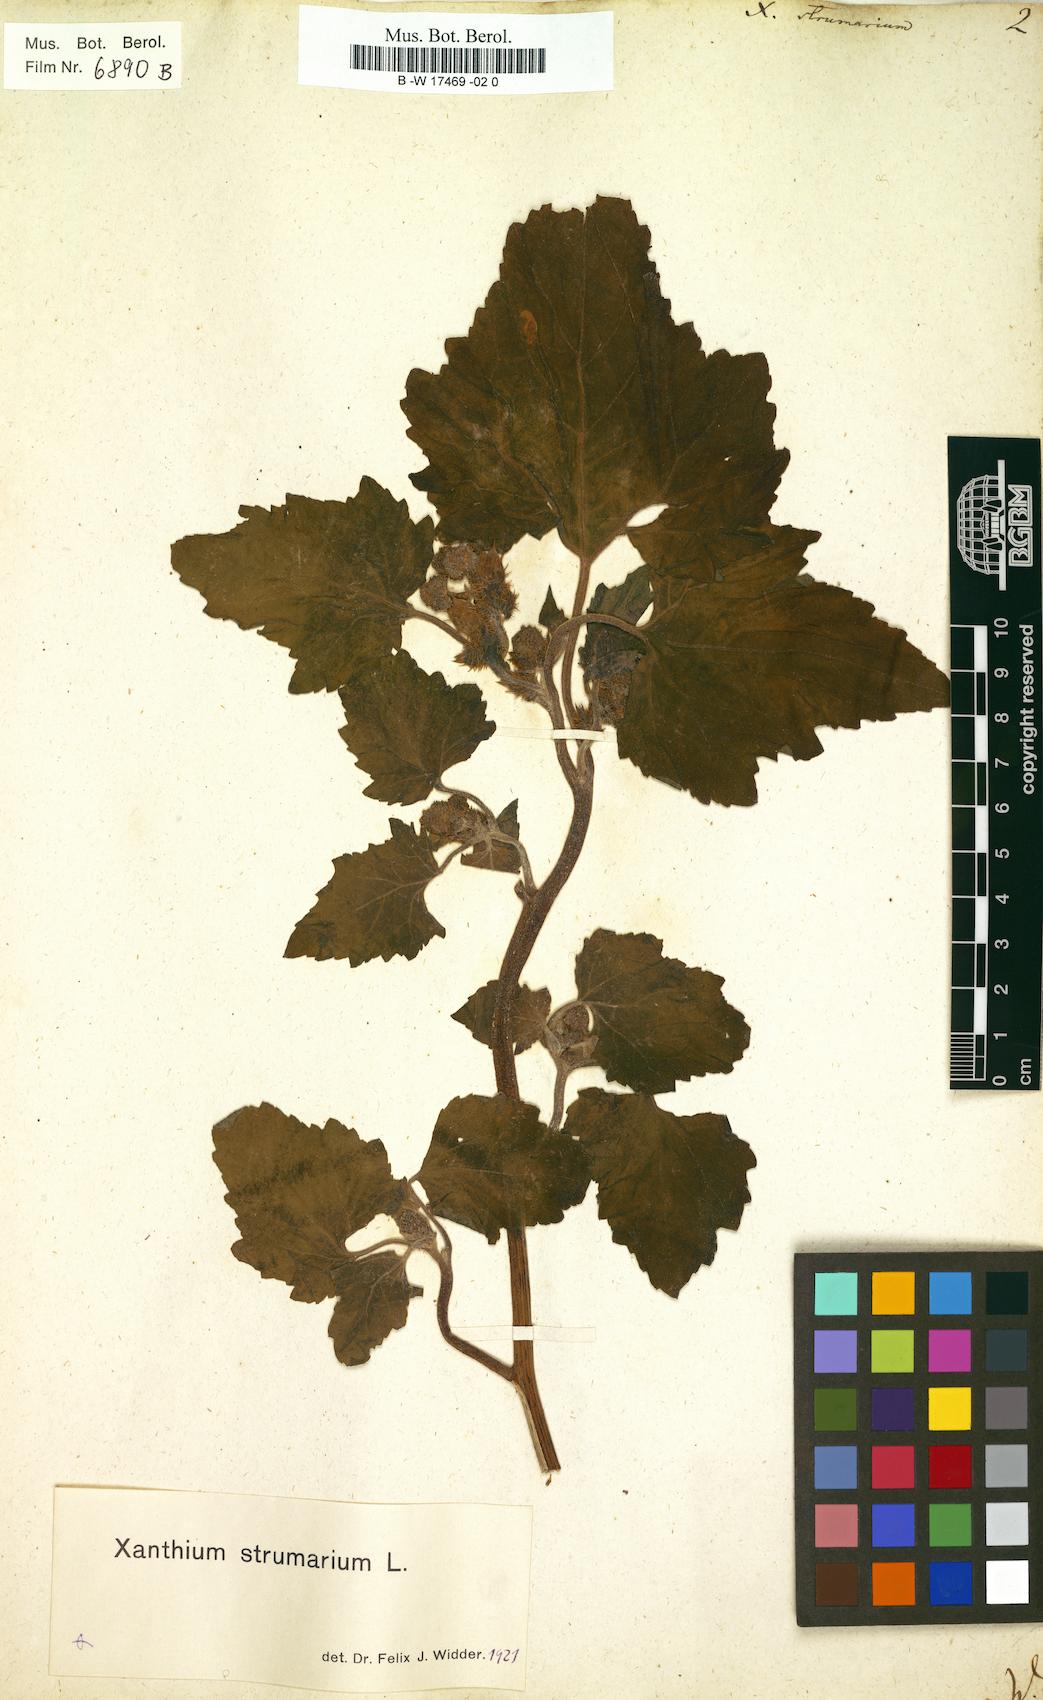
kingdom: Plantae
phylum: Tracheophyta
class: Magnoliopsida
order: Asterales
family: Asteraceae
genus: Xanthium
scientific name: Xanthium strumarium
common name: Rough cocklebur
